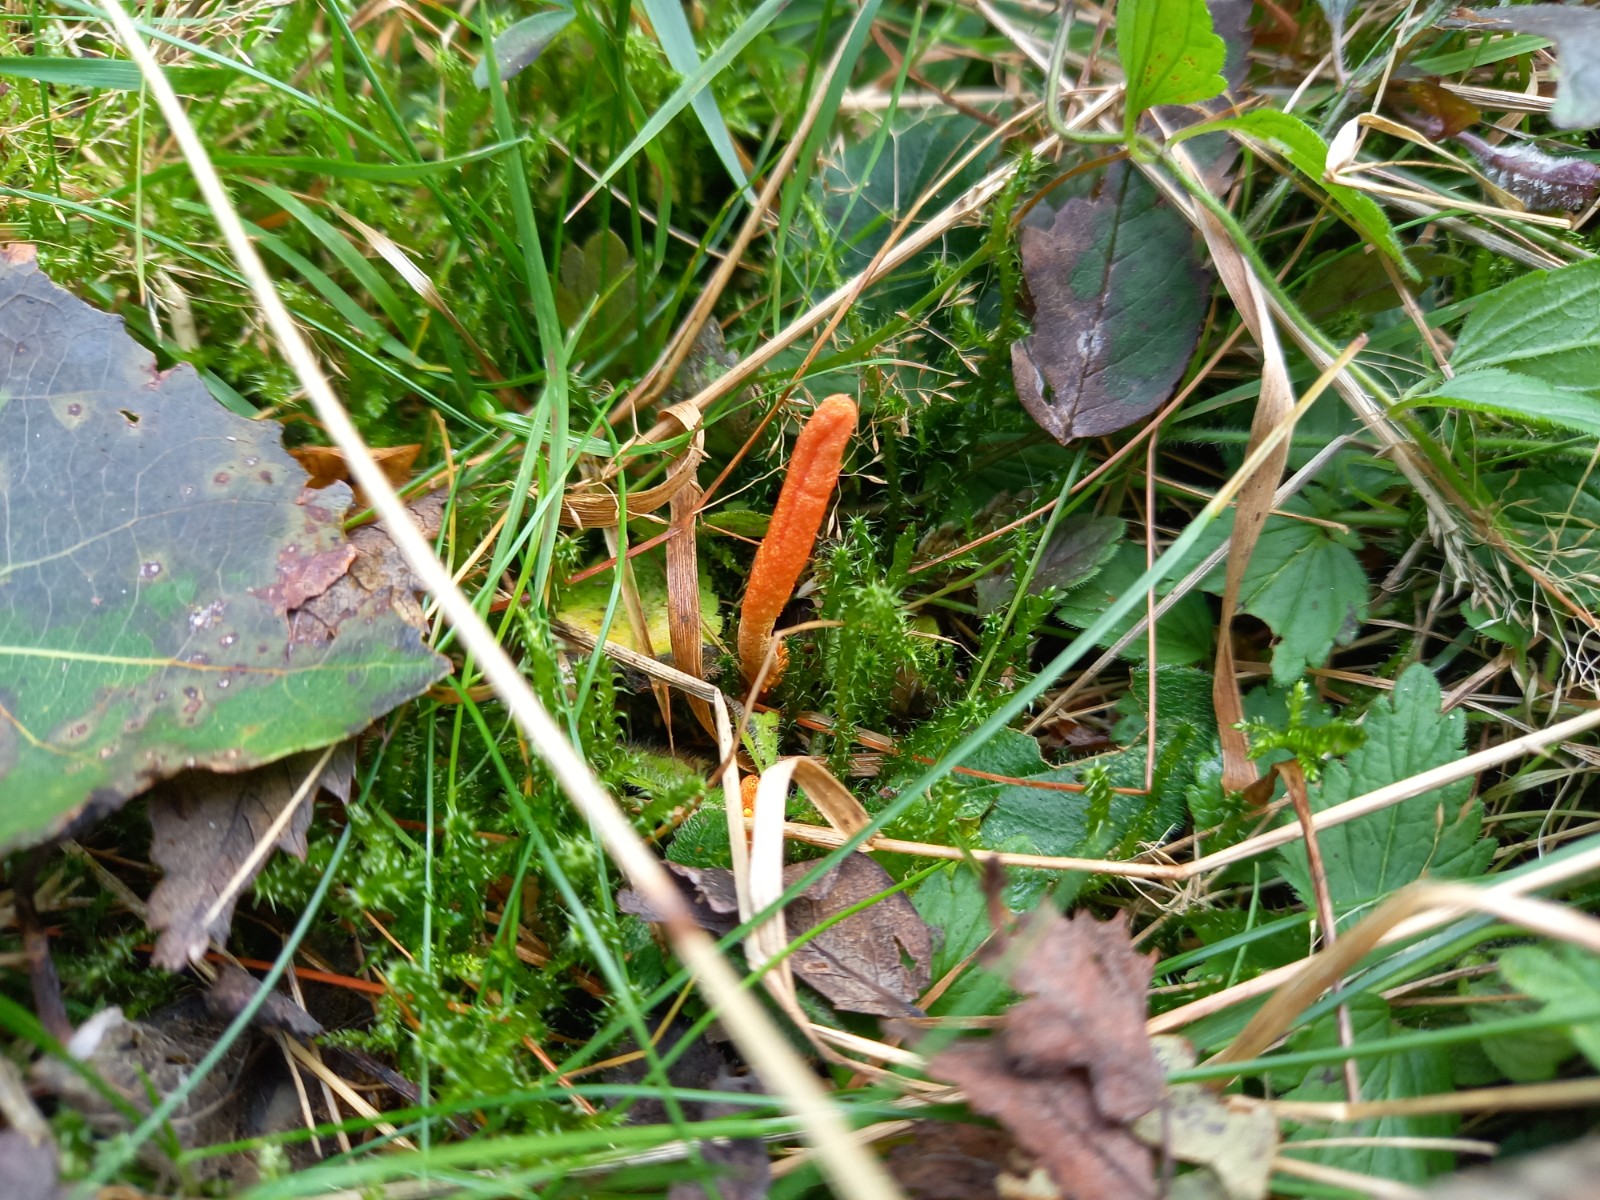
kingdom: Fungi
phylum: Ascomycota
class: Sordariomycetes
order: Hypocreales
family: Cordycipitaceae
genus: Cordyceps
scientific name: Cordyceps militaris
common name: puppe-snyltekølle
